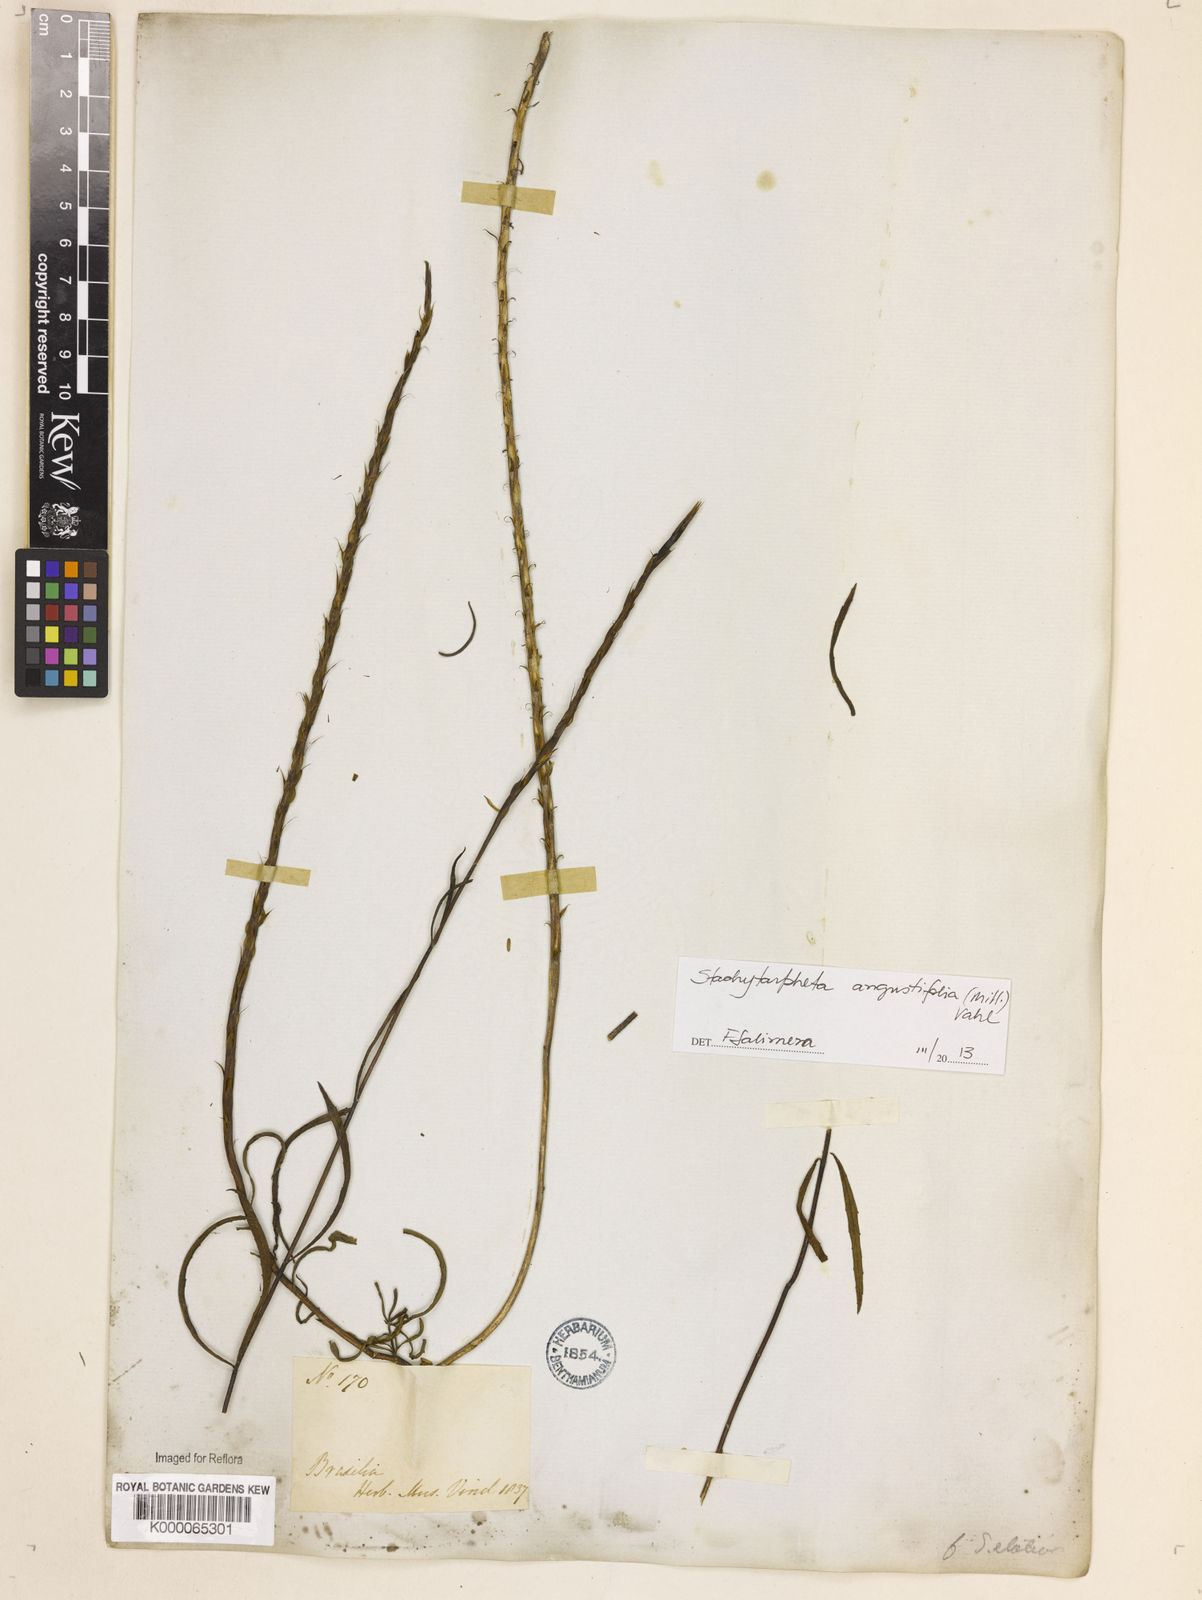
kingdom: Plantae
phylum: Tracheophyta
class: Magnoliopsida
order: Lamiales
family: Verbenaceae
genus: Stachytarpheta
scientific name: Stachytarpheta indica
